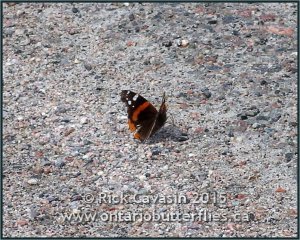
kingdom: Animalia
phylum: Arthropoda
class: Insecta
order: Lepidoptera
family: Nymphalidae
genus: Vanessa
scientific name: Vanessa atalanta
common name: Red Admiral
